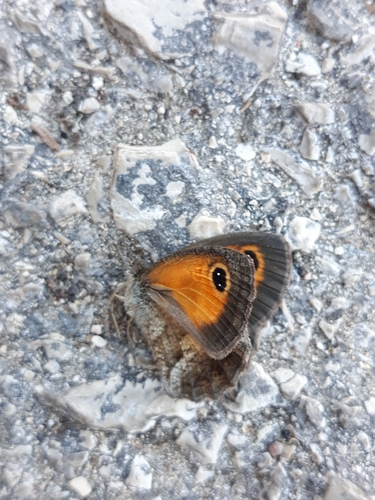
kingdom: Animalia
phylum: Arthropoda
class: Insecta
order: Lepidoptera
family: Nymphalidae
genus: Pyronia
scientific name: Pyronia cecilia
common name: Southern gatekeeper
